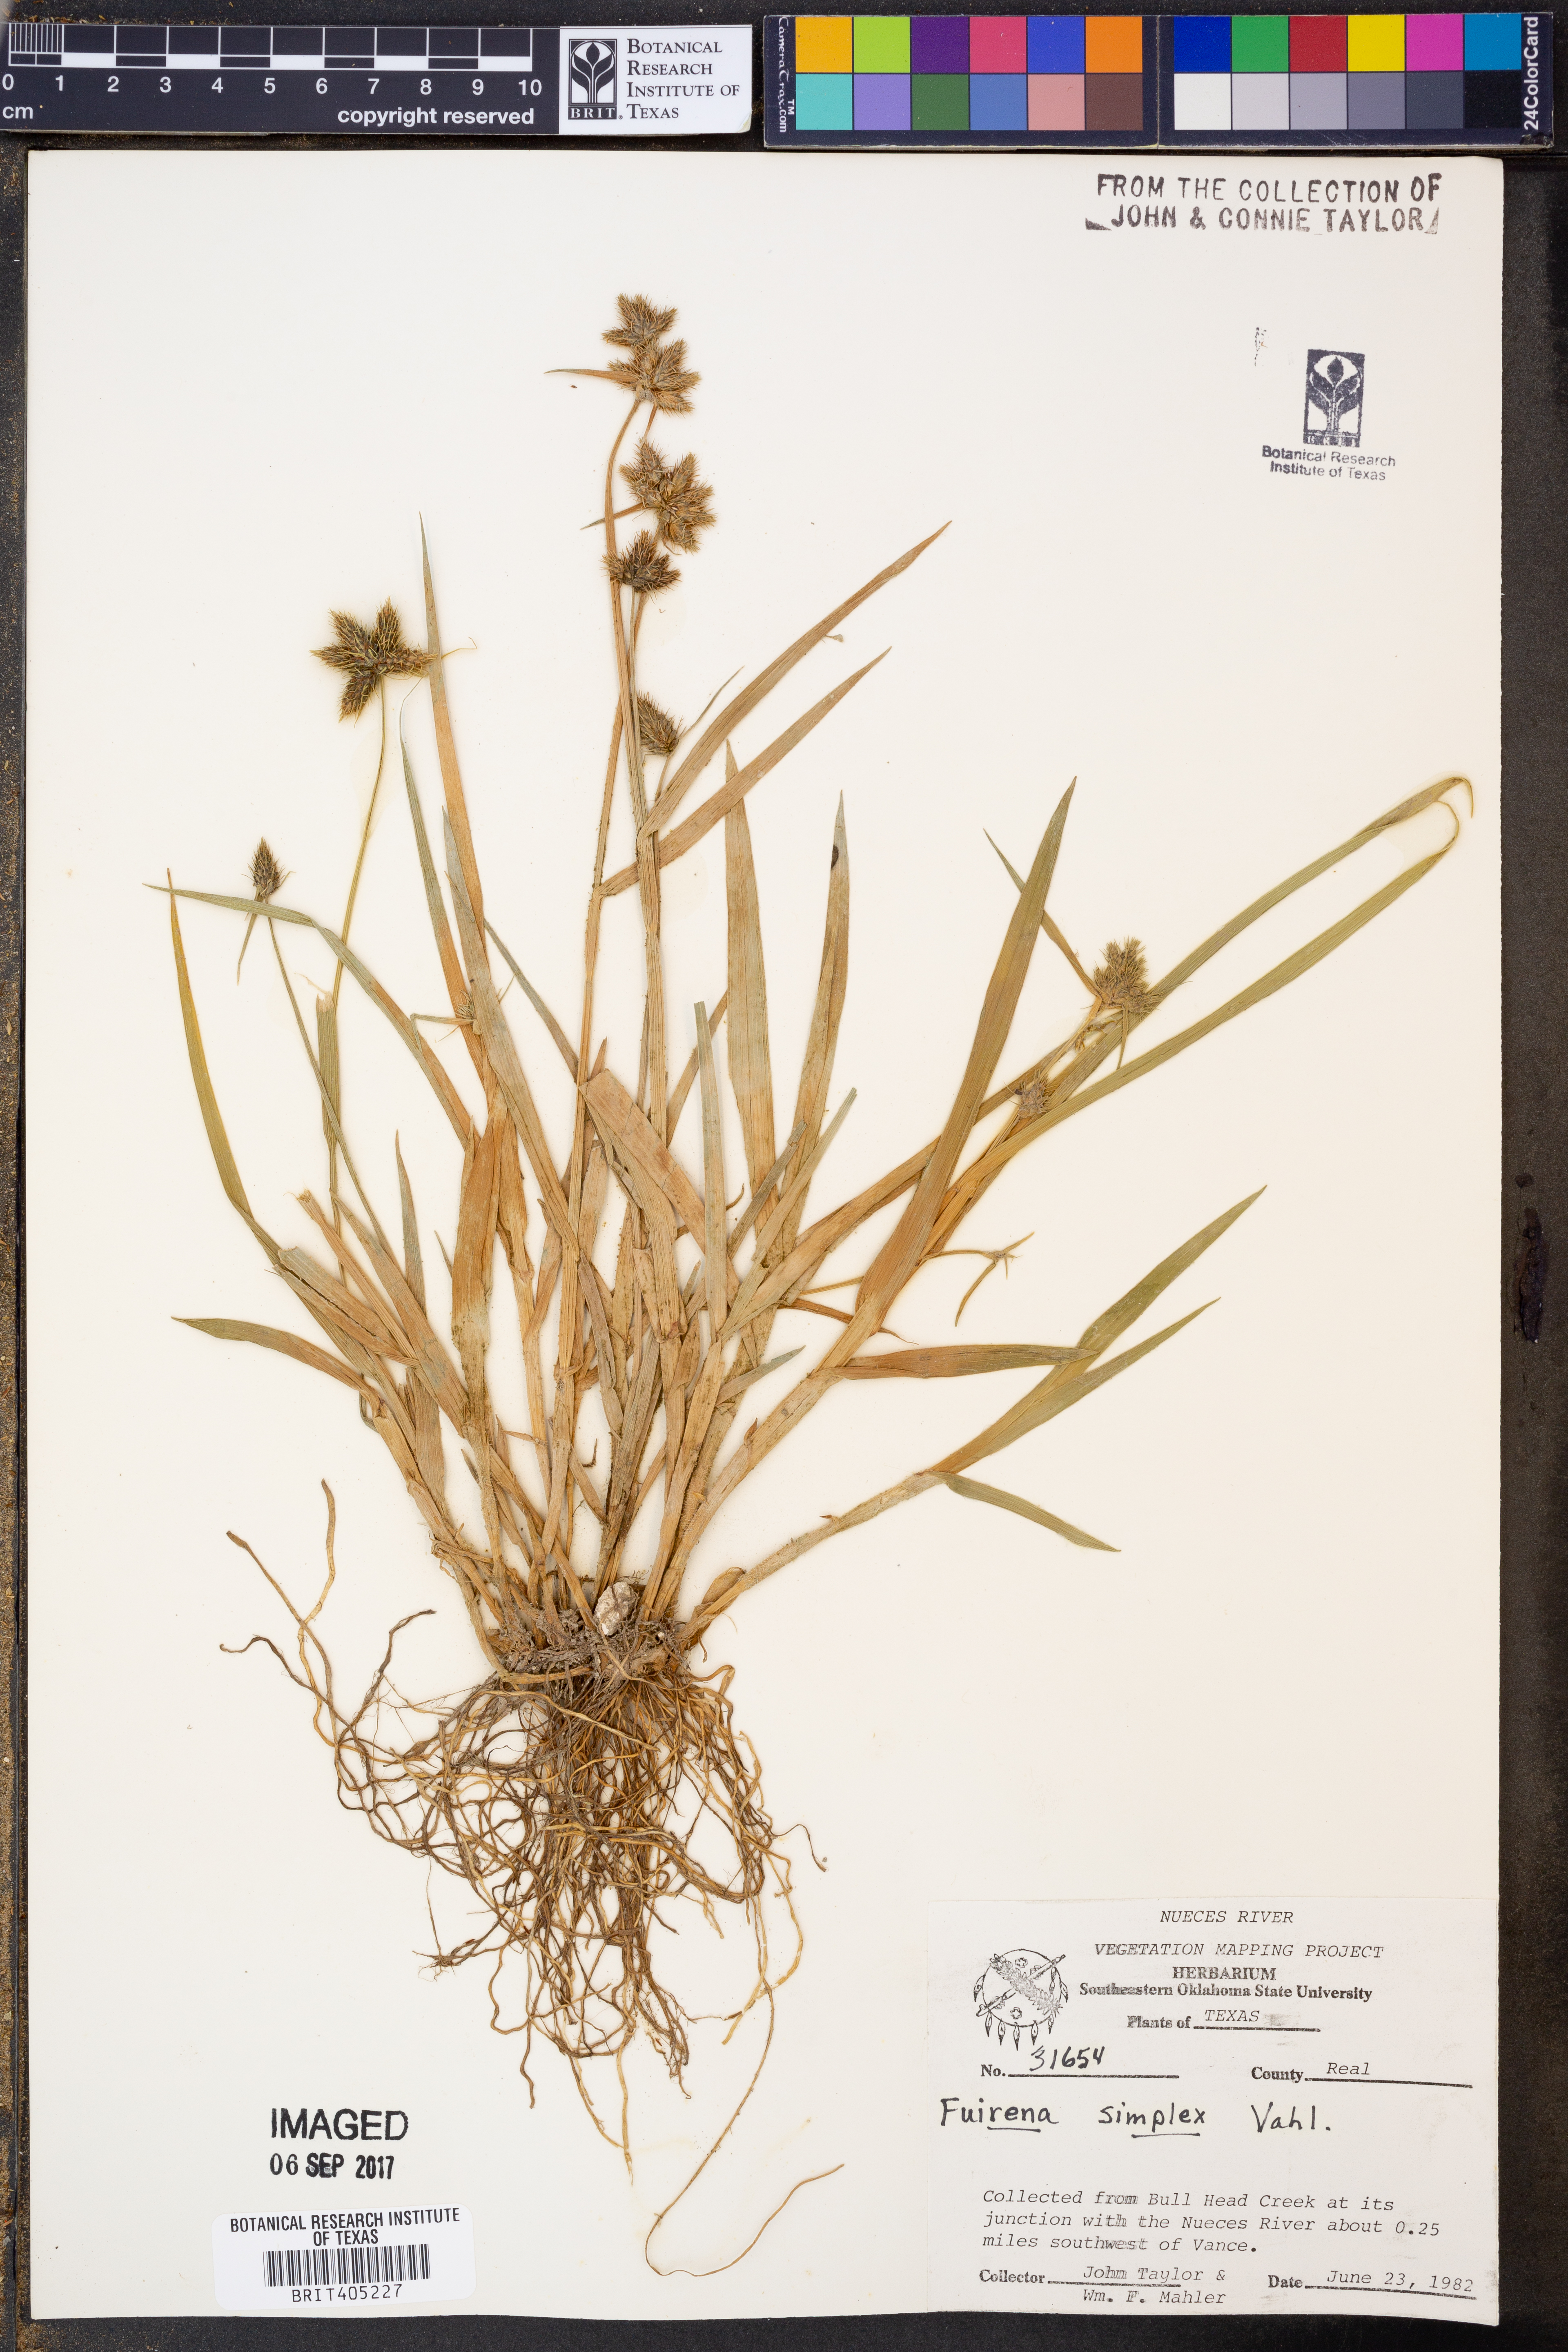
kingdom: Plantae
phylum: Tracheophyta
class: Liliopsida
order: Poales
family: Cyperaceae
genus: Fuirena
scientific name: Fuirena simplex
